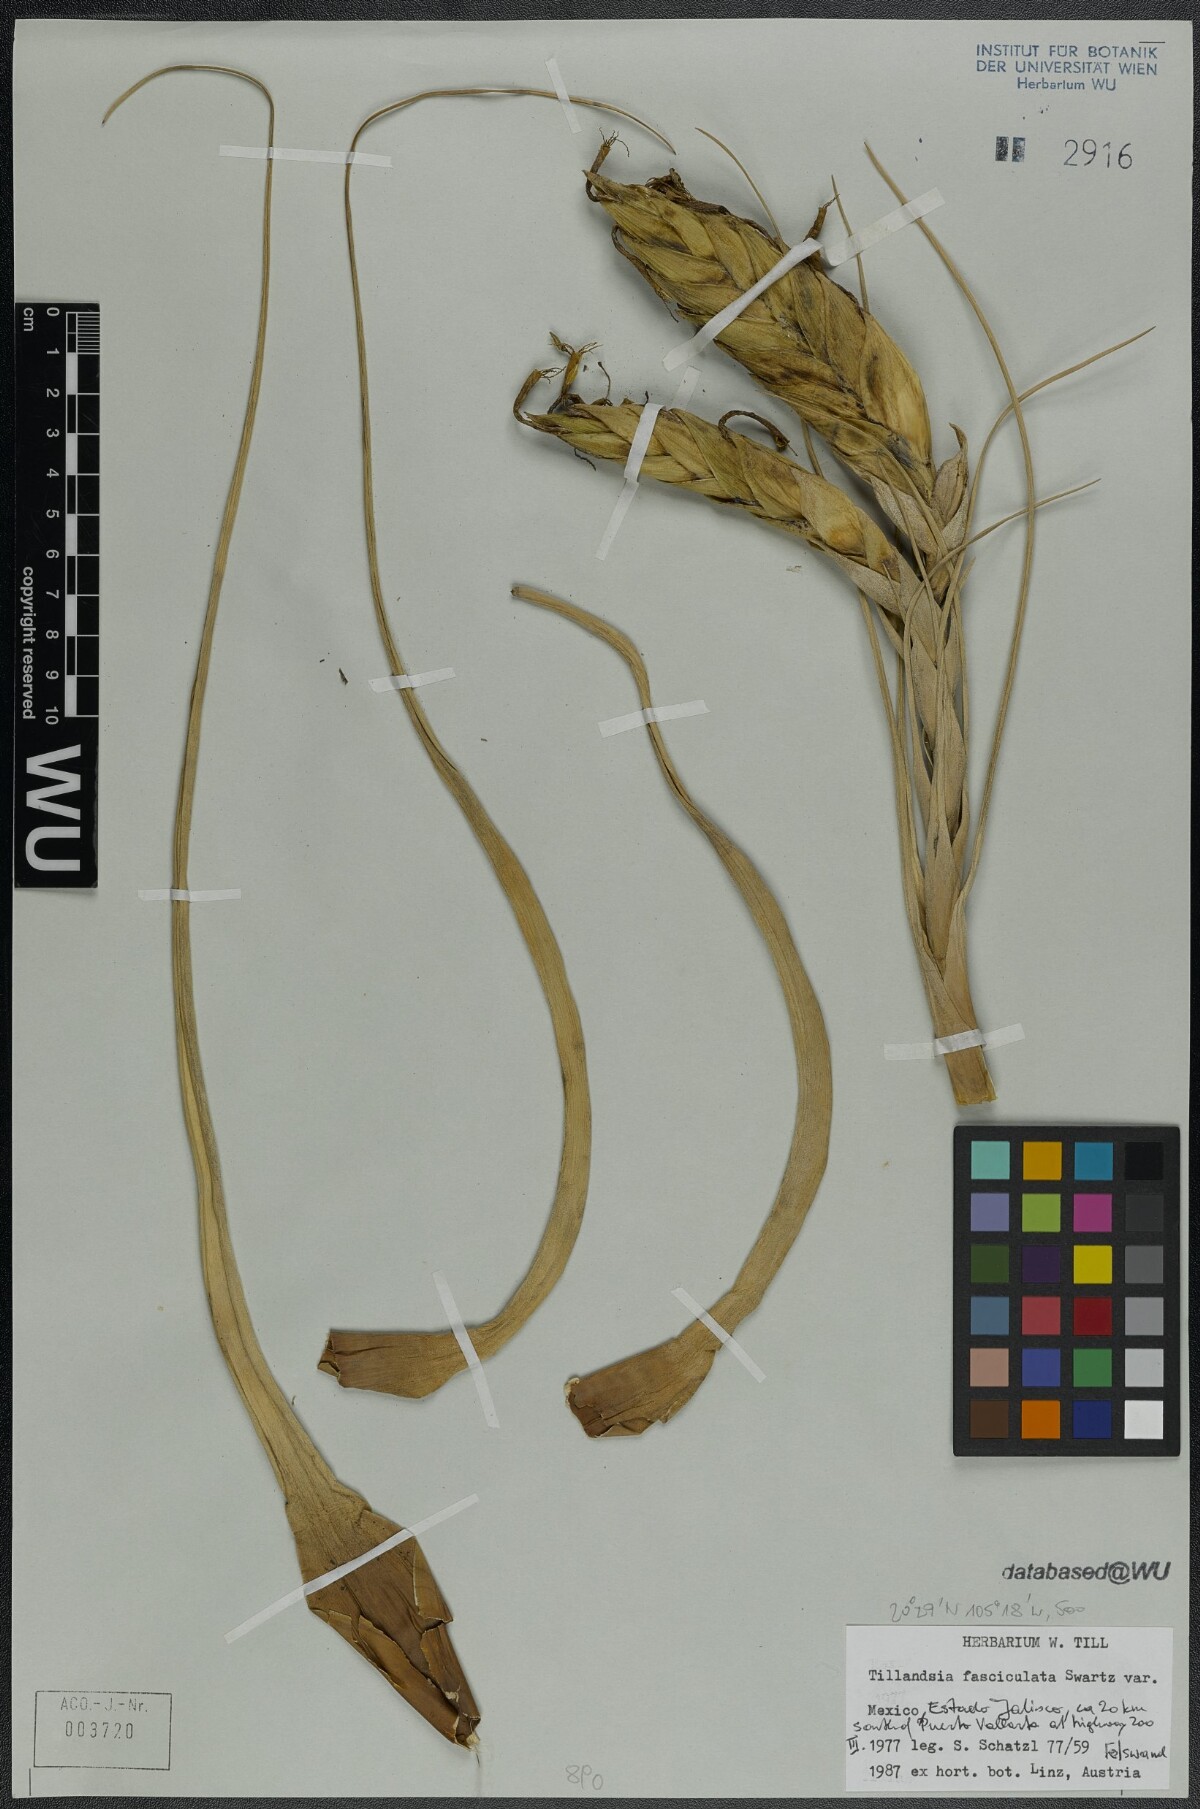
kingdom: Plantae
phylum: Tracheophyta
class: Liliopsida
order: Poales
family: Bromeliaceae
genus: Tillandsia
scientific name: Tillandsia fasciculata
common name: Giant airplant
